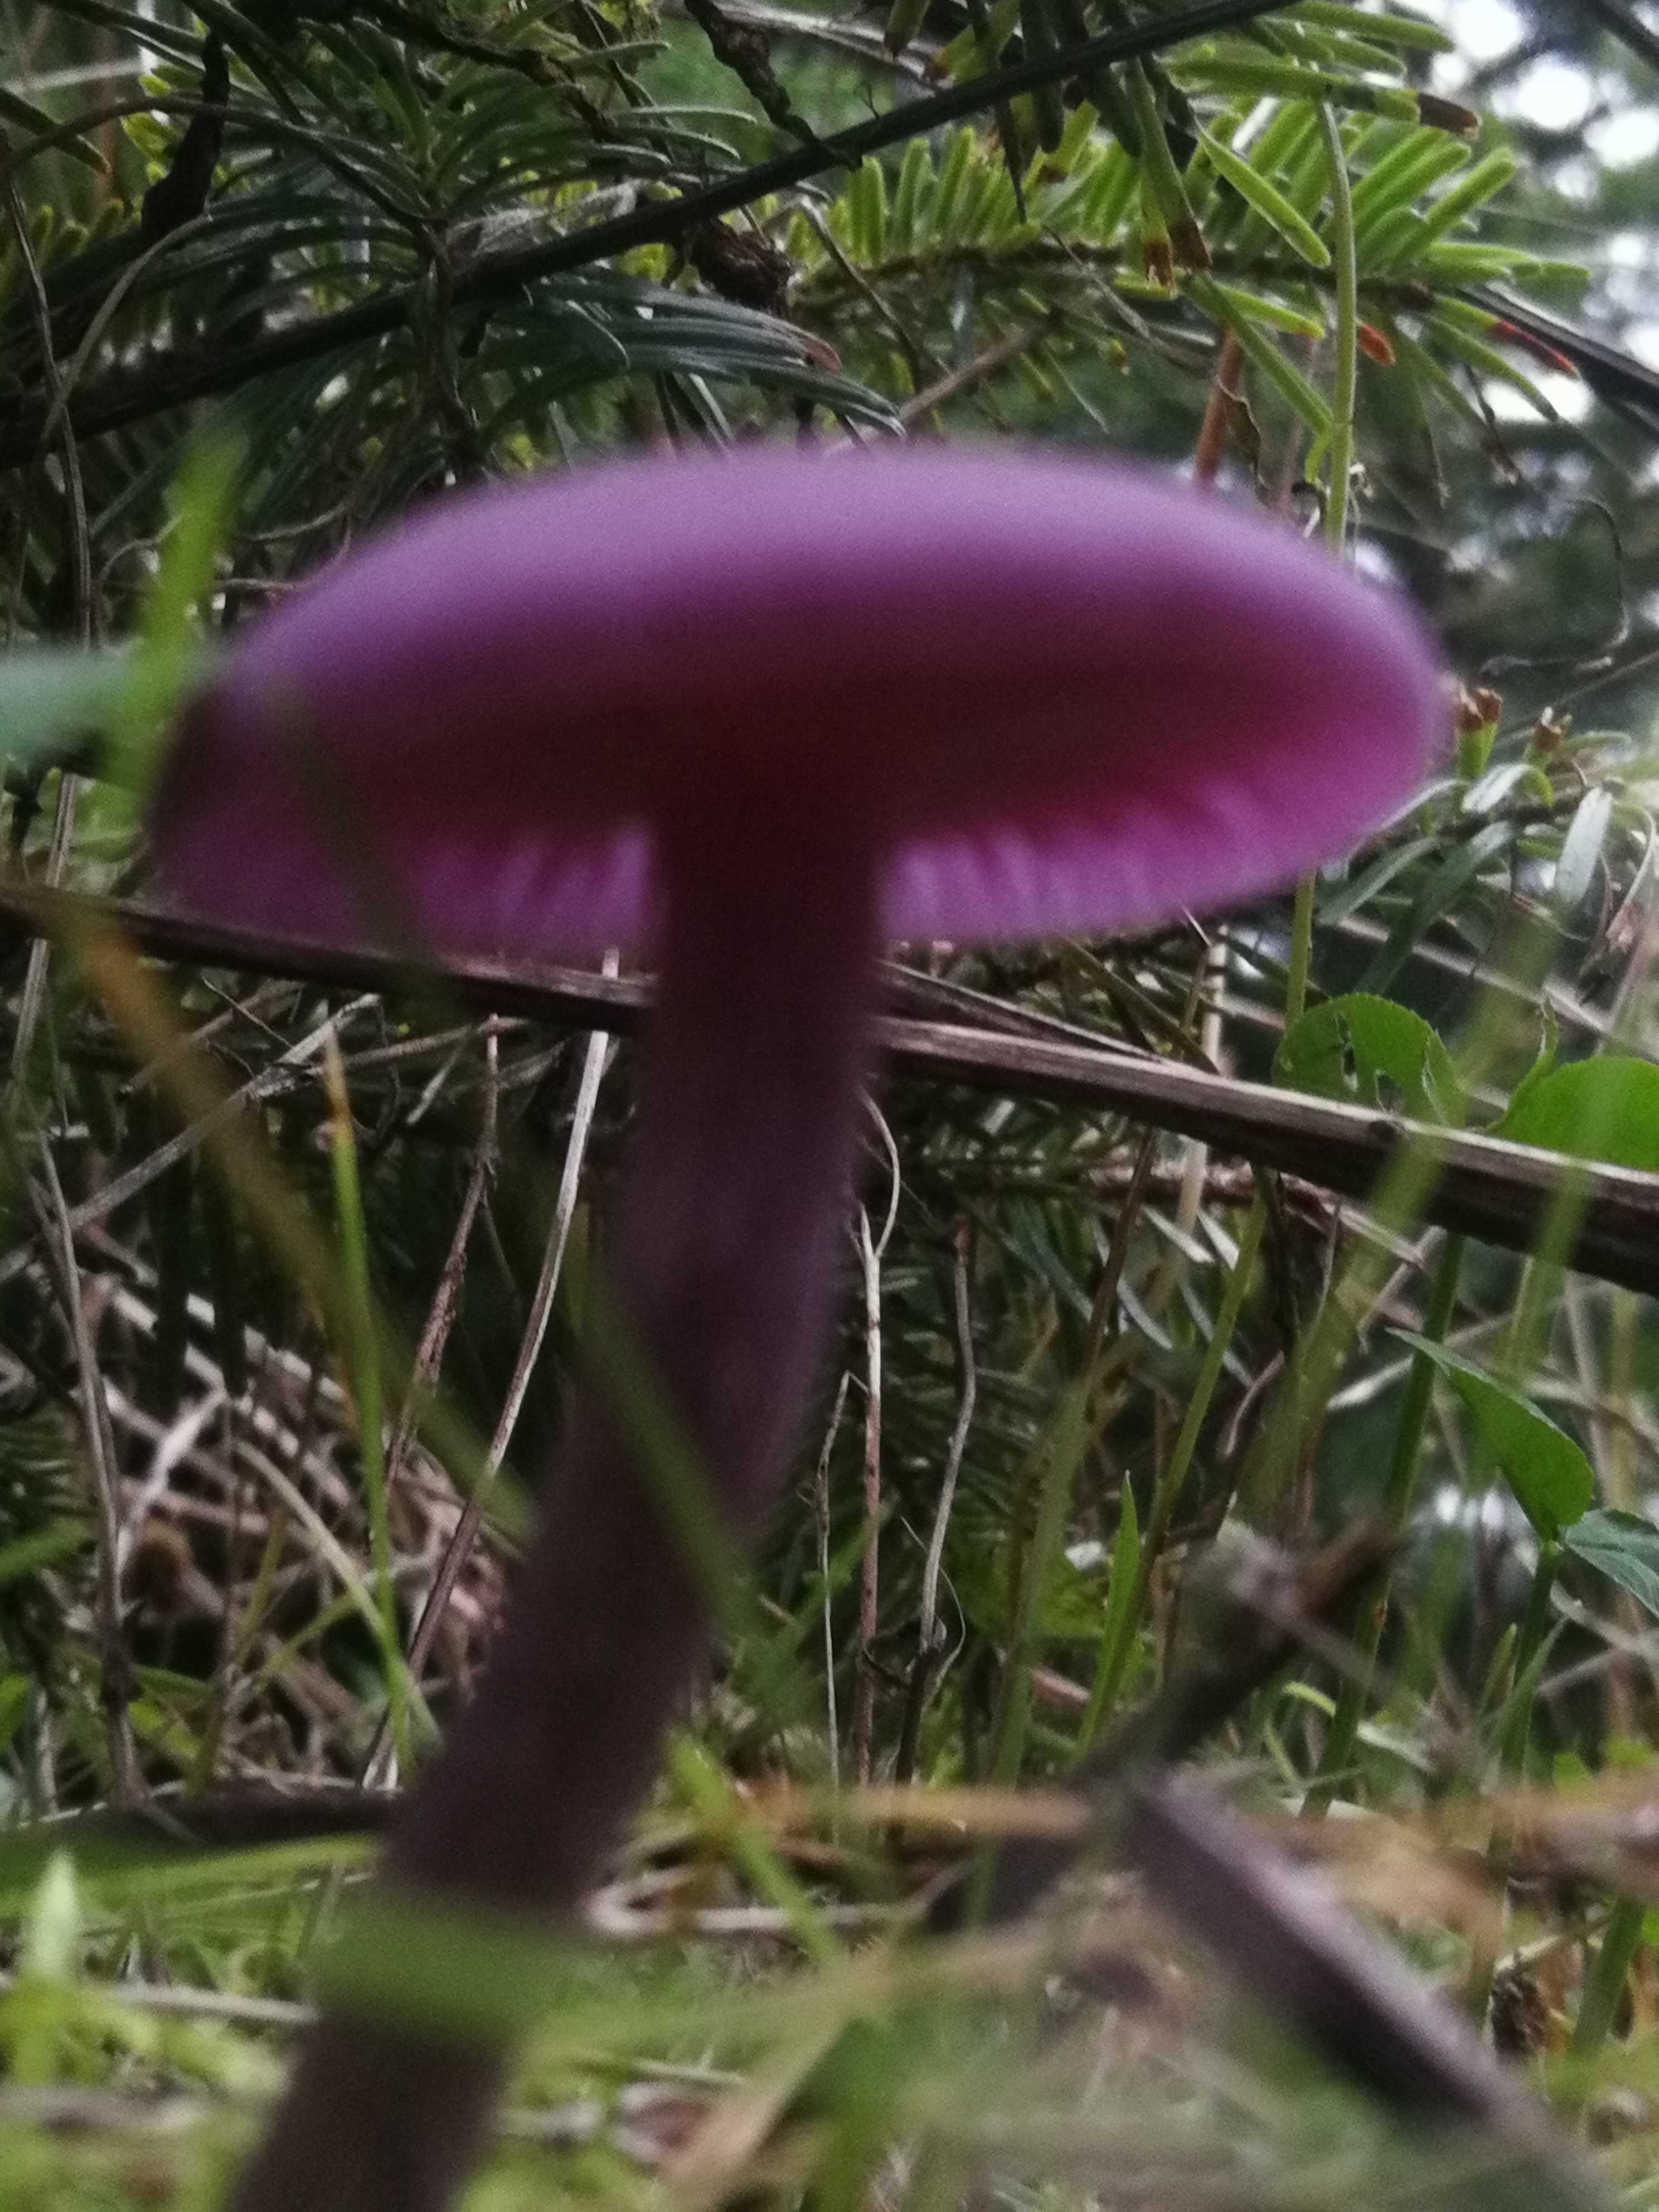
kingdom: Fungi
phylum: Basidiomycota
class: Agaricomycetes
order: Agaricales
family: Hydnangiaceae
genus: Laccaria
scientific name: Laccaria amethystina
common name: violet ametysthat
